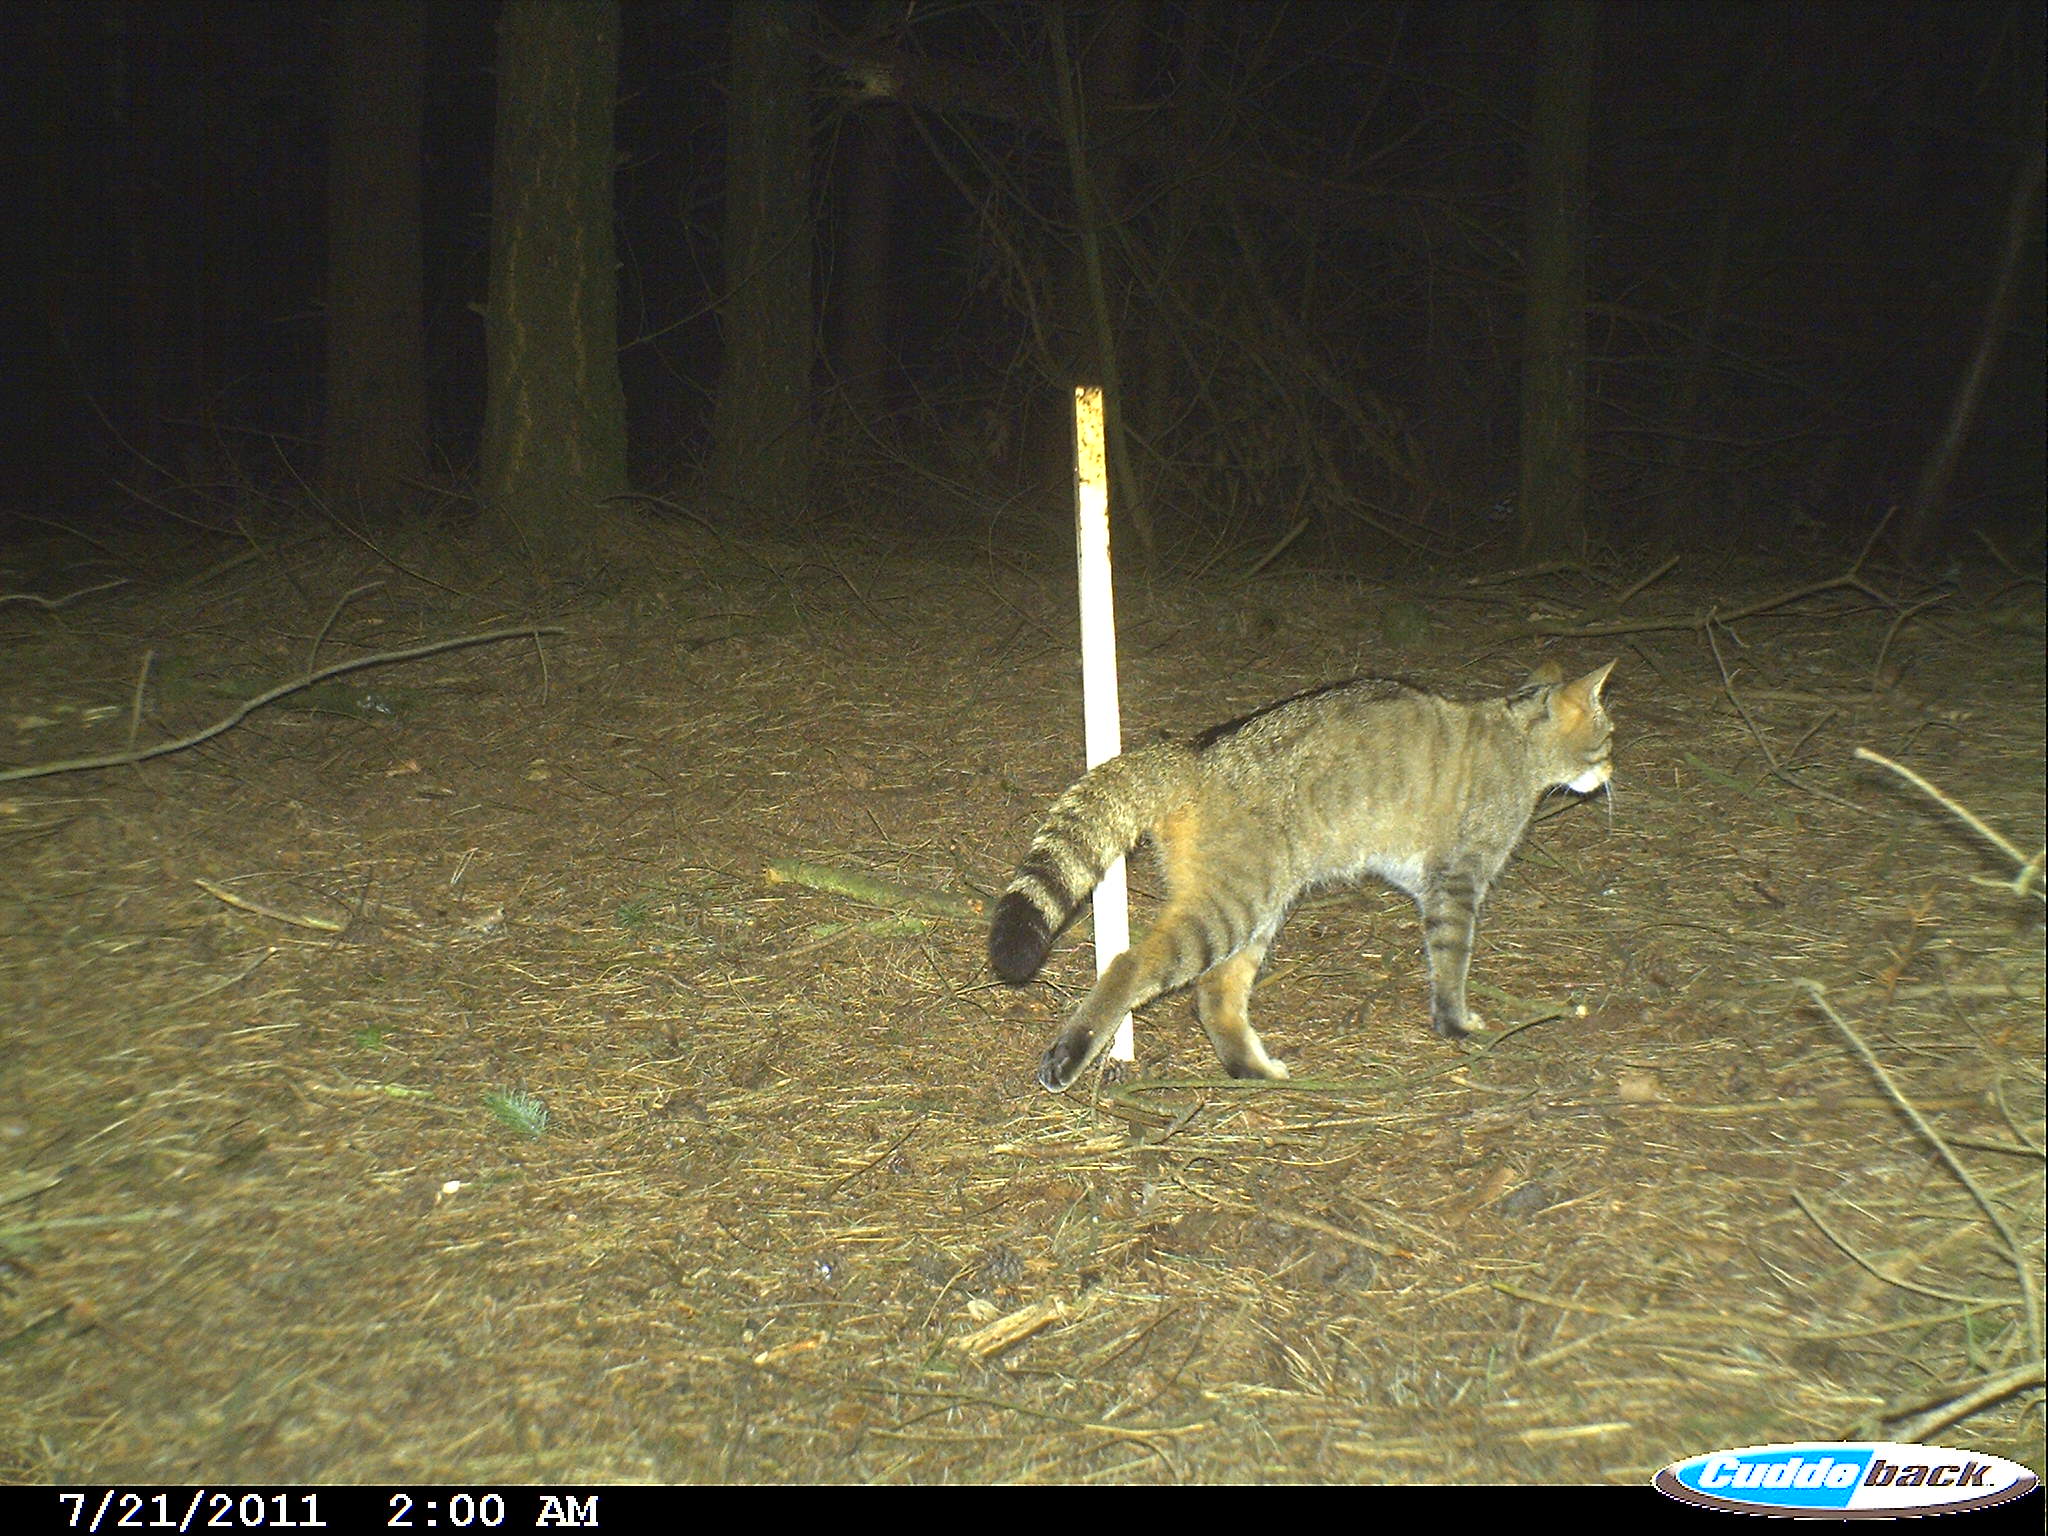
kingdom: Animalia
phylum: Chordata
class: Mammalia
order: Carnivora
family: Felidae
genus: Felis
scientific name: Felis silvestris
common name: Wildcat
